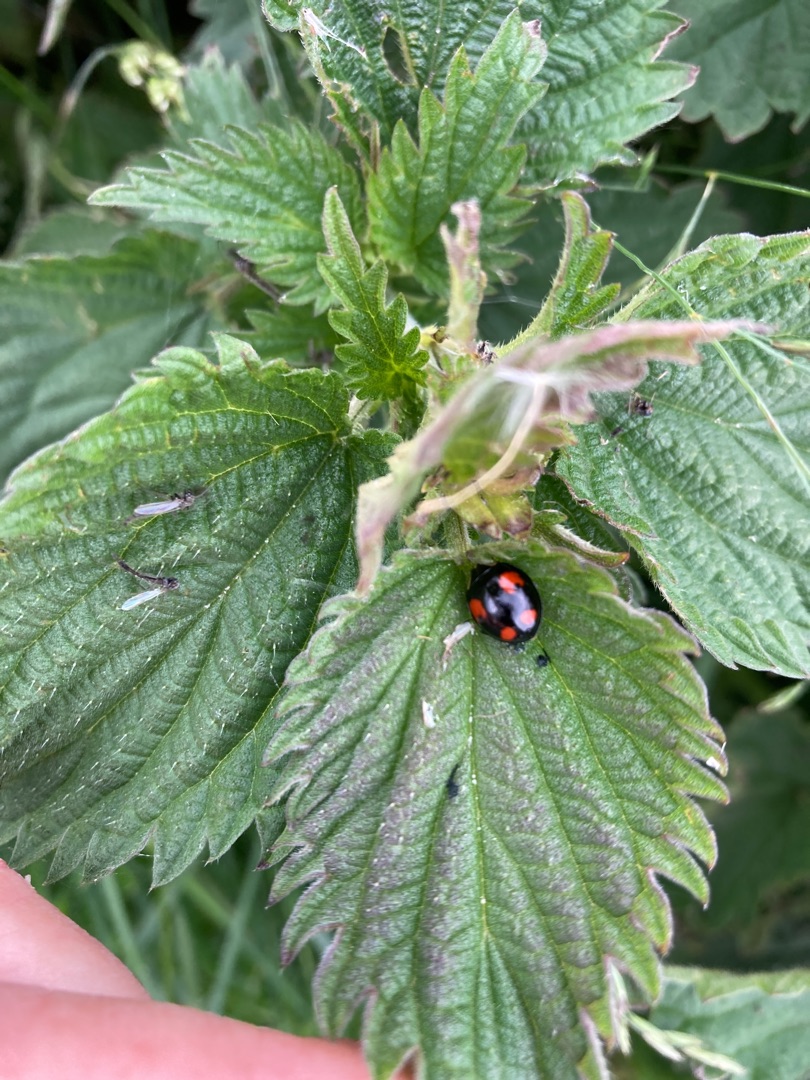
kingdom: Animalia
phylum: Arthropoda
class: Insecta
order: Coleoptera
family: Coccinellidae
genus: Harmonia
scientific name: Harmonia axyridis
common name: Harlekinmariehøne
